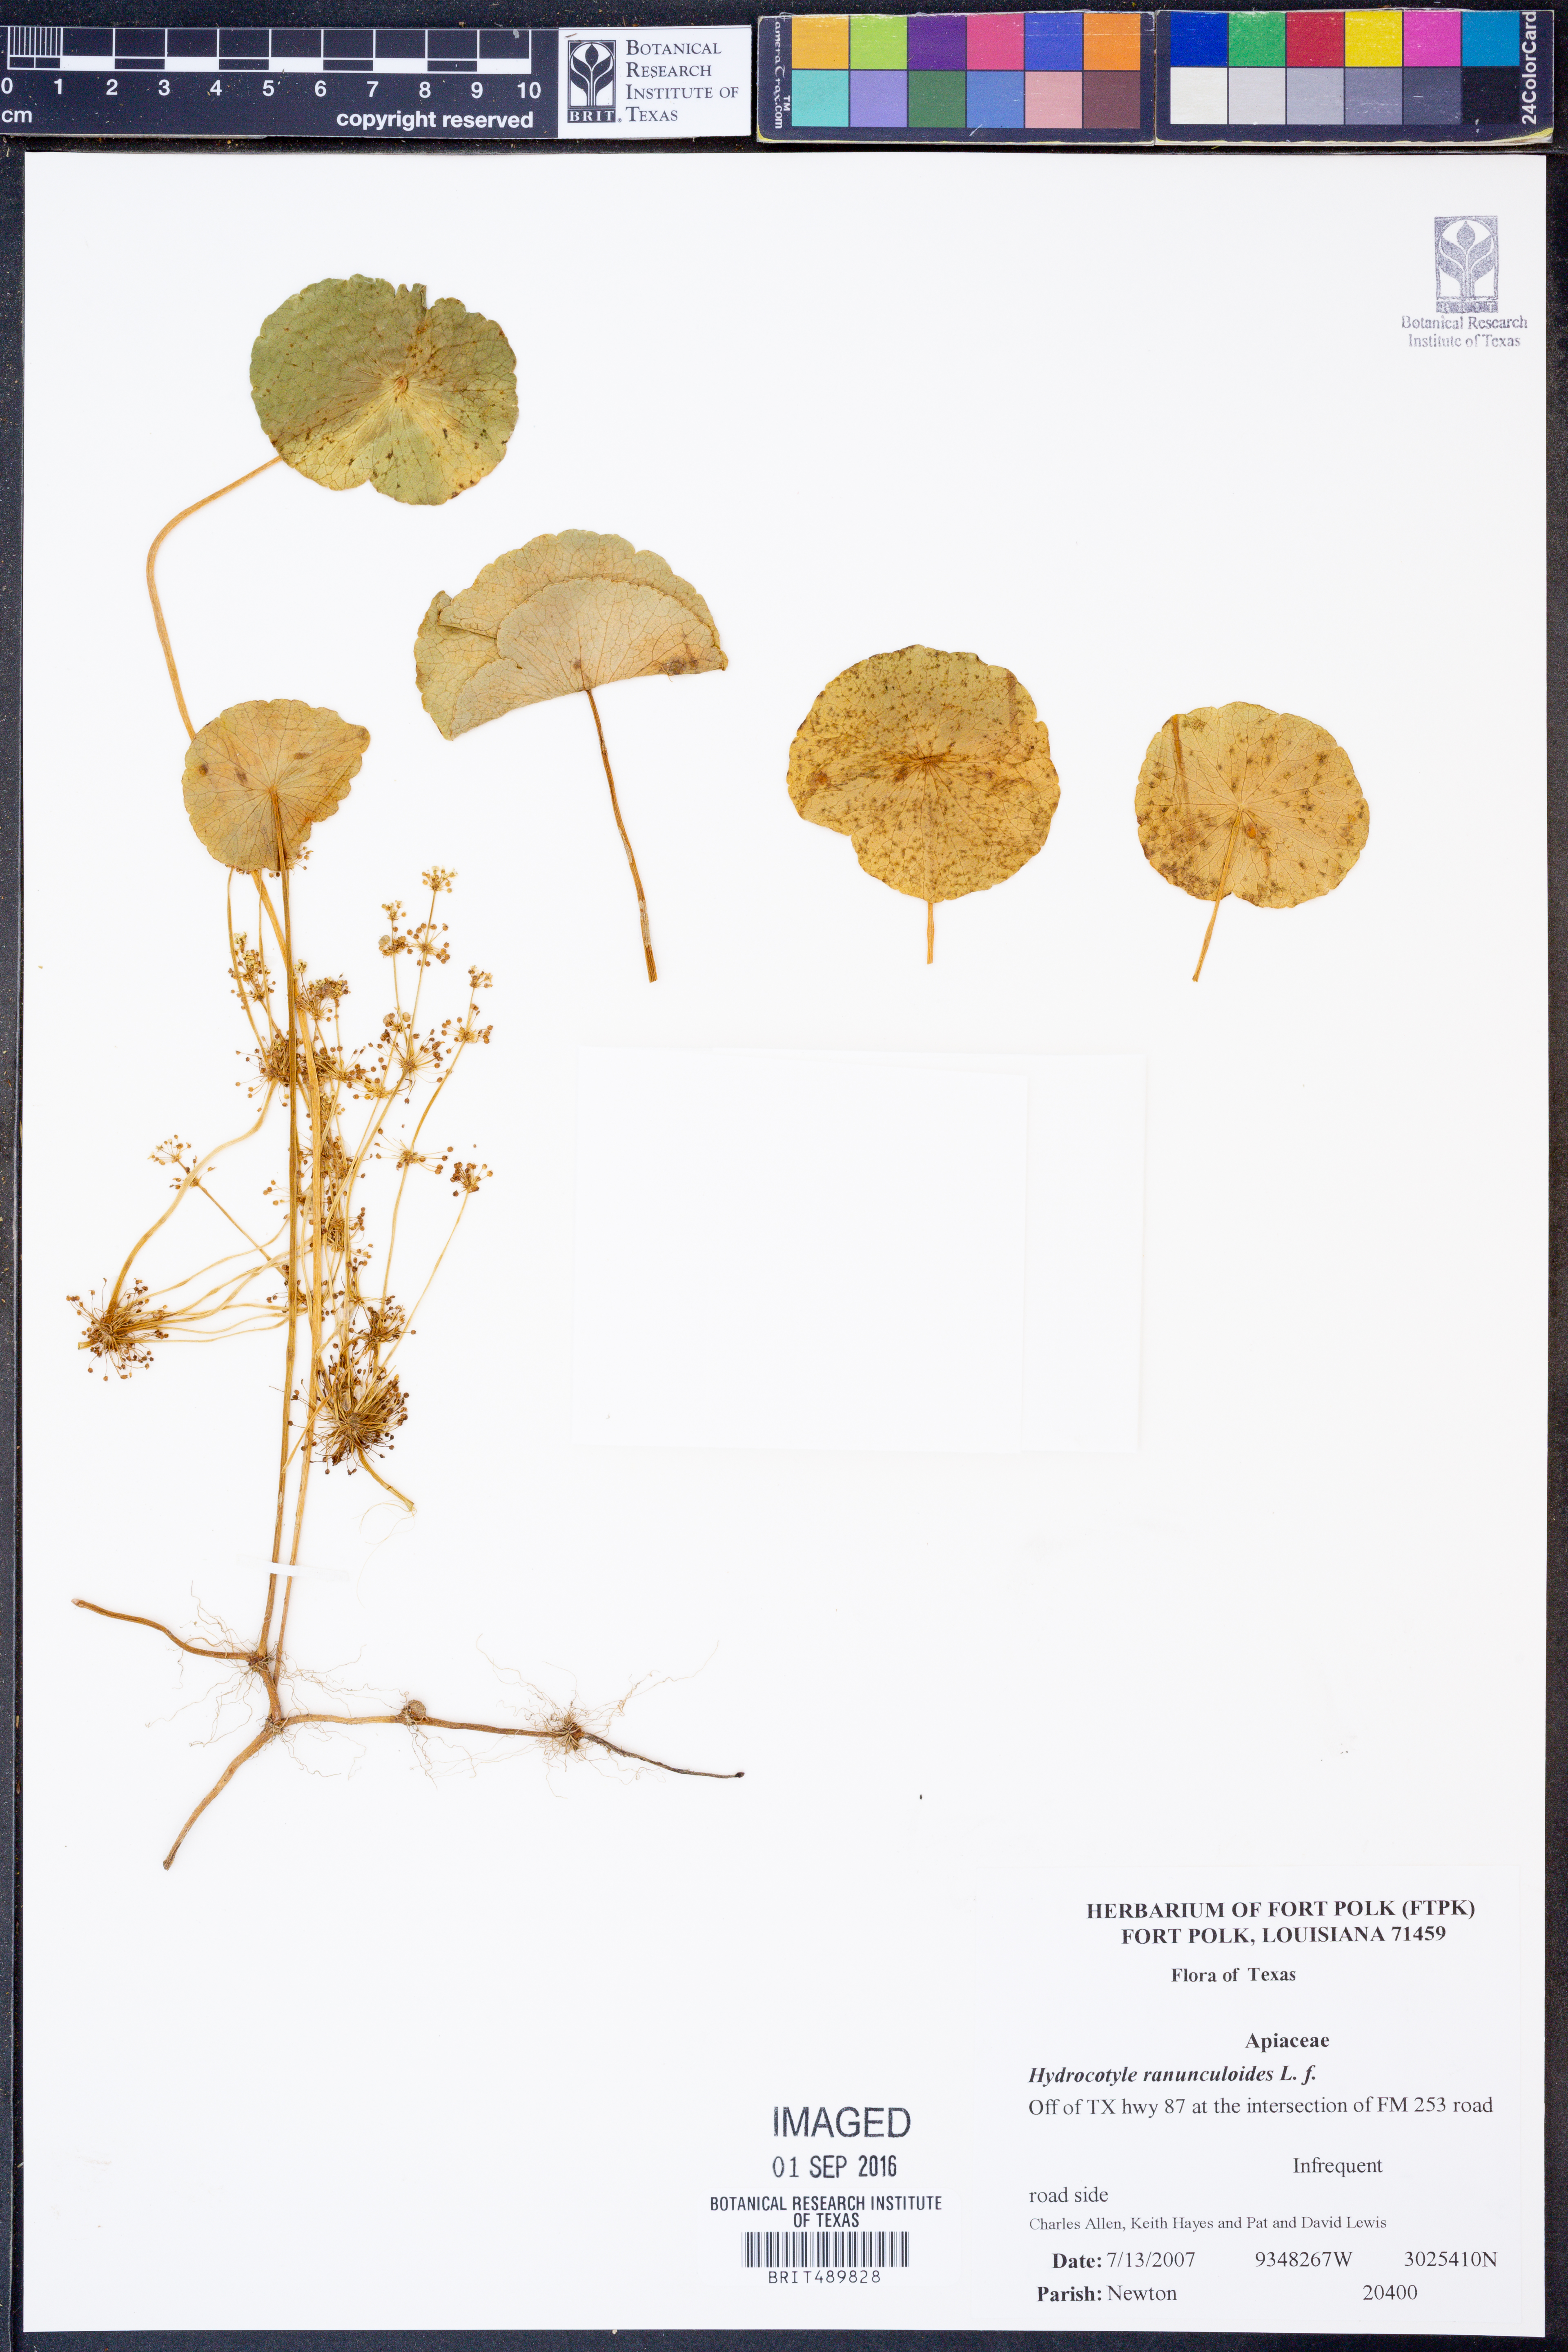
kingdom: Plantae
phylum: Tracheophyta
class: Magnoliopsida
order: Apiales
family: Araliaceae
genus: Hydrocotyle
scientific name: Hydrocotyle ranunculoides
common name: Floating pennywort
